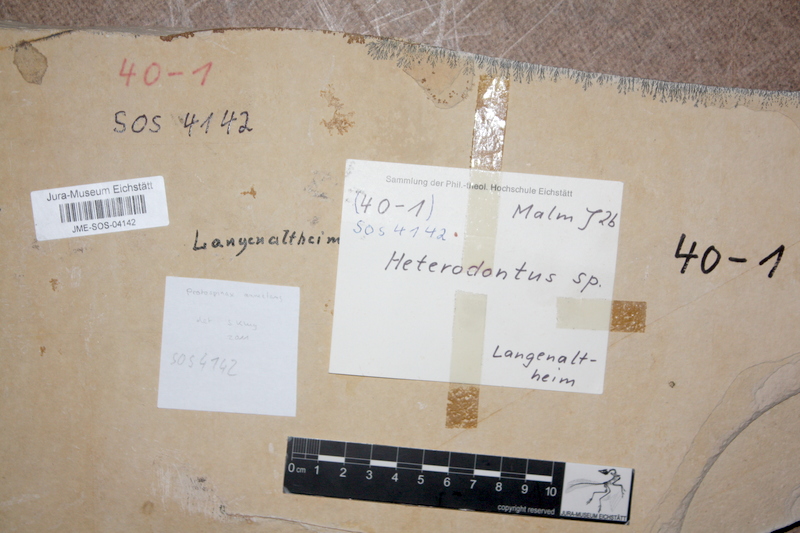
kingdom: Animalia
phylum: Chordata
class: Elasmobranchii
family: Protospinacidae
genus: Protospinax
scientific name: Protospinax annectans
